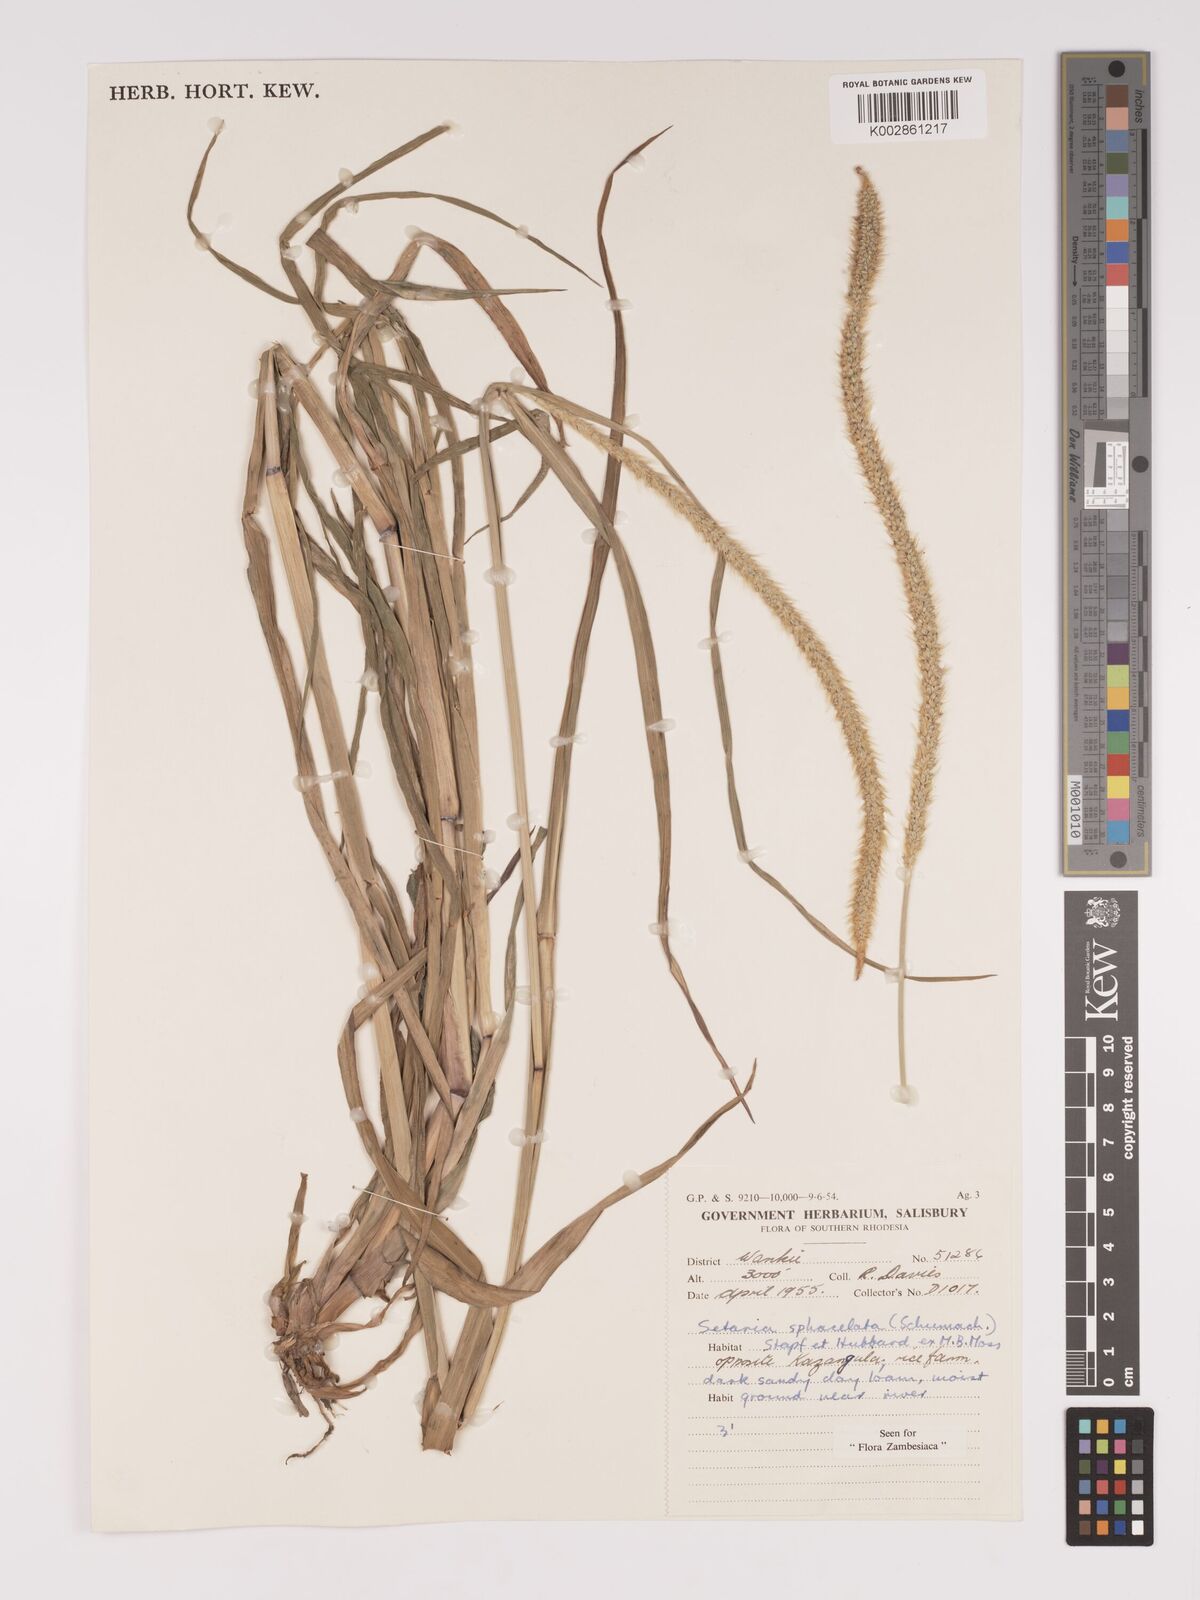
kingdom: Plantae
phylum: Tracheophyta
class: Liliopsida
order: Poales
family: Poaceae
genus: Setaria
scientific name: Setaria sphacelata
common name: African bristlegrass
